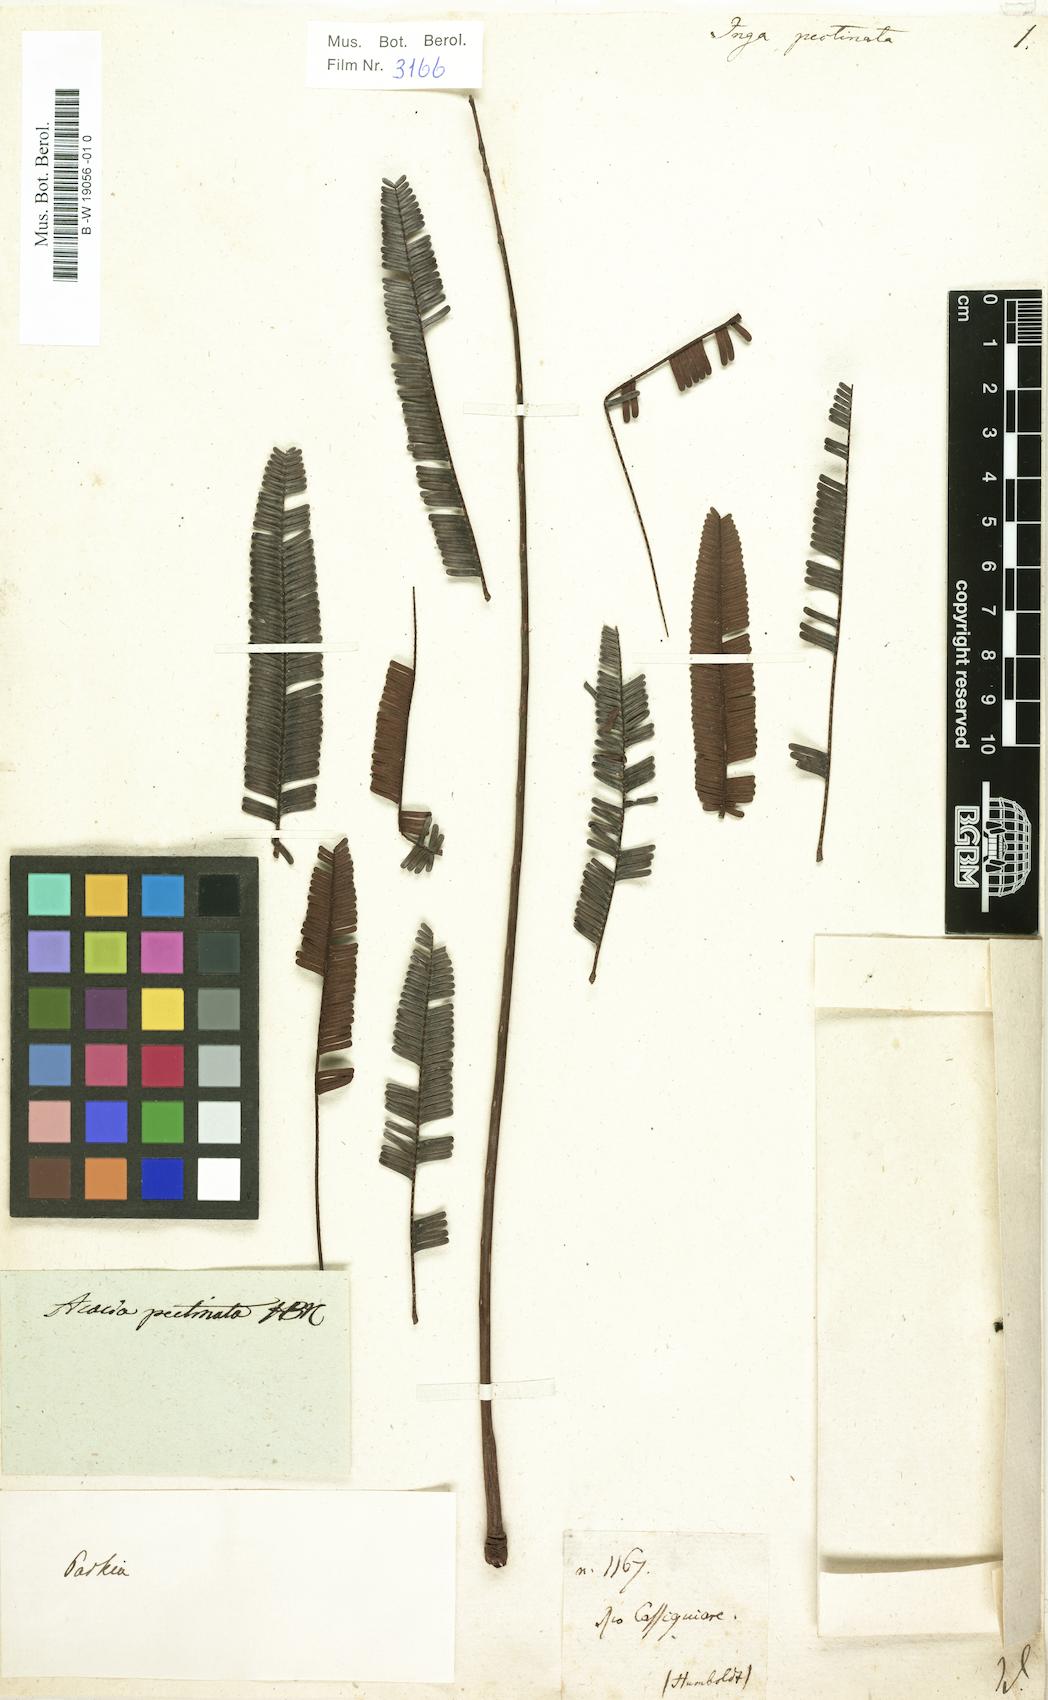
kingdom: Plantae
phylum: Tracheophyta
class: Magnoliopsida
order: Fabales
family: Fabaceae
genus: Parkia
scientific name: Parkia pectinata
